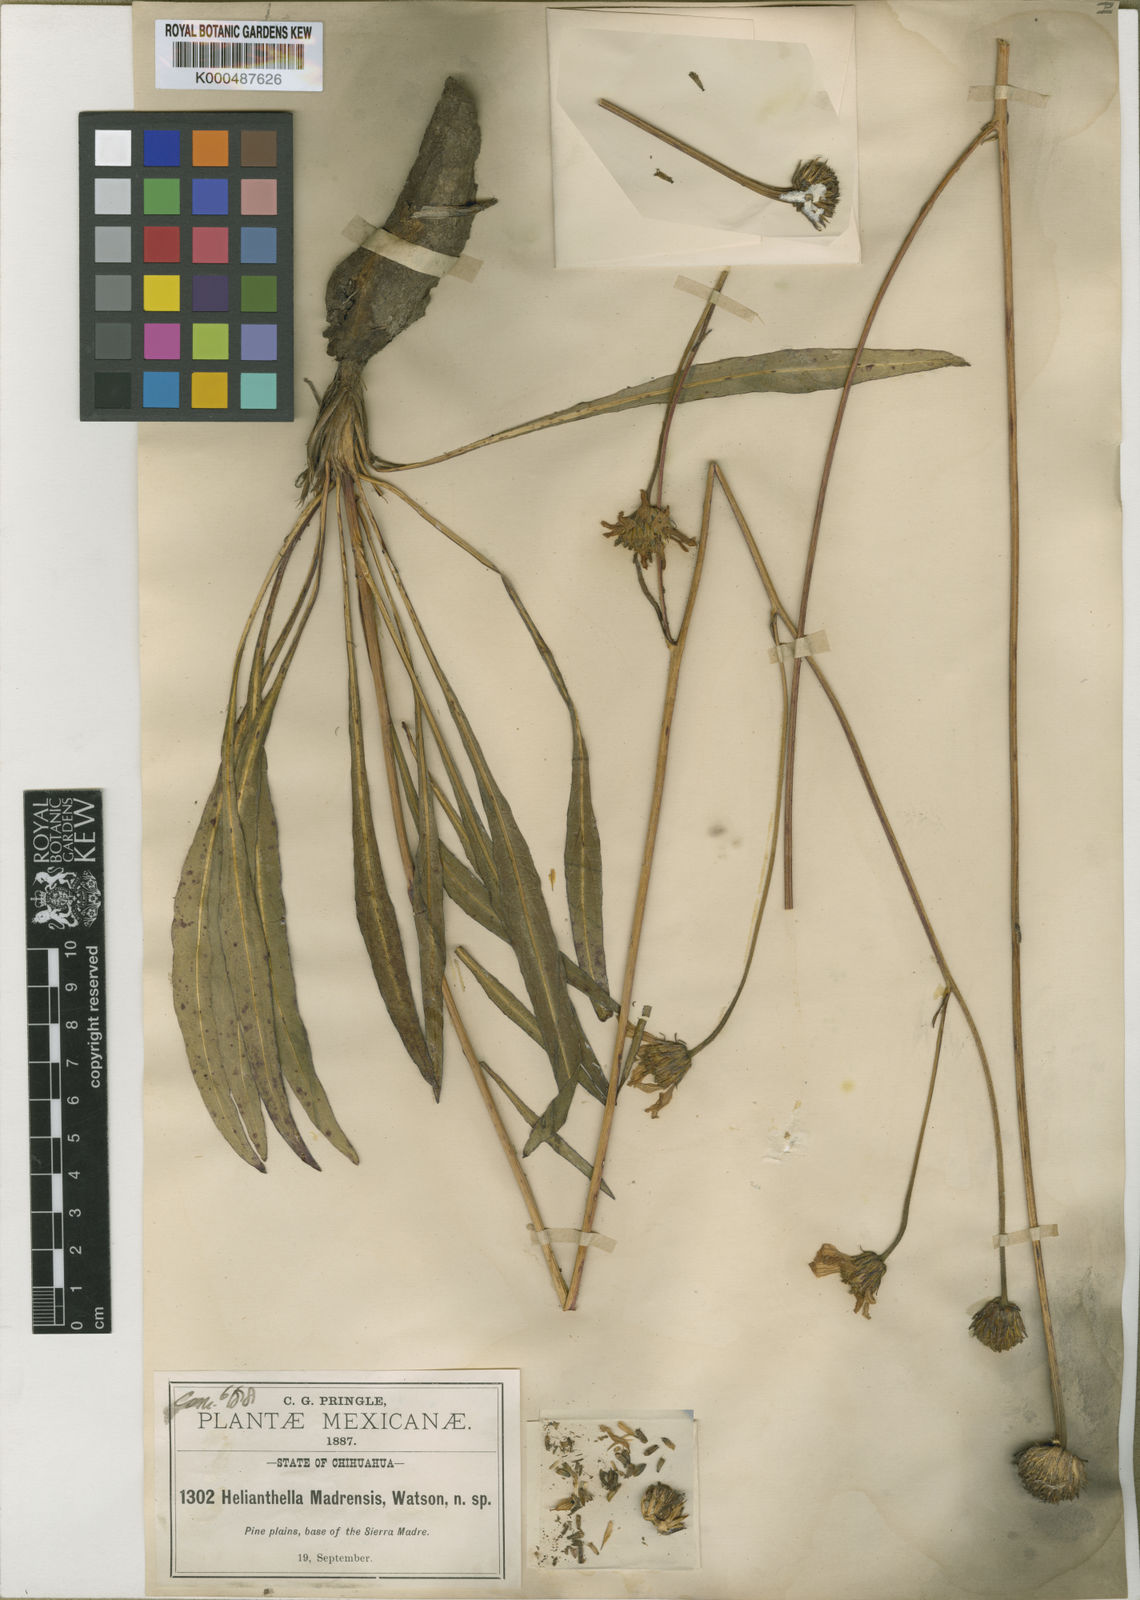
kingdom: Plantae
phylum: Tracheophyta
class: Magnoliopsida
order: Asterales
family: Asteraceae
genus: Iostephane
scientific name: Iostephane madrensis
